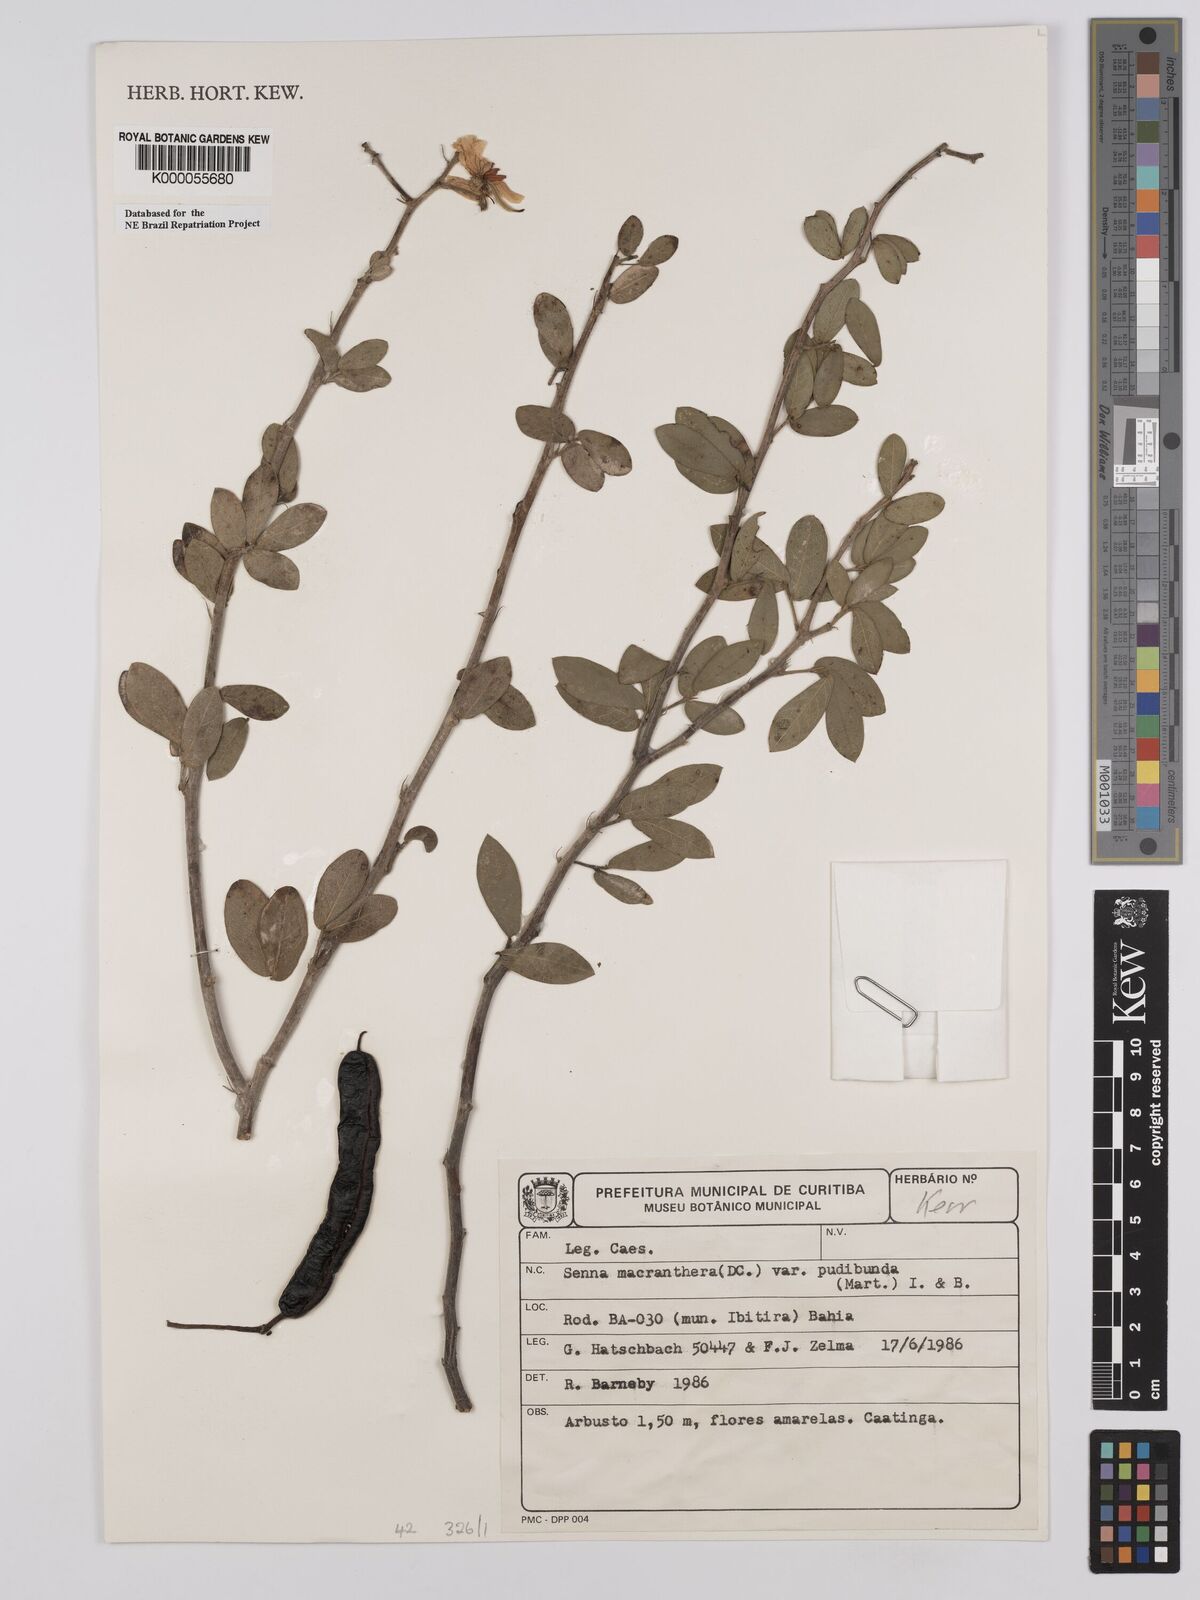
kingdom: Plantae
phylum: Tracheophyta
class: Magnoliopsida
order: Fabales
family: Fabaceae
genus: Senna
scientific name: Senna macranthera
